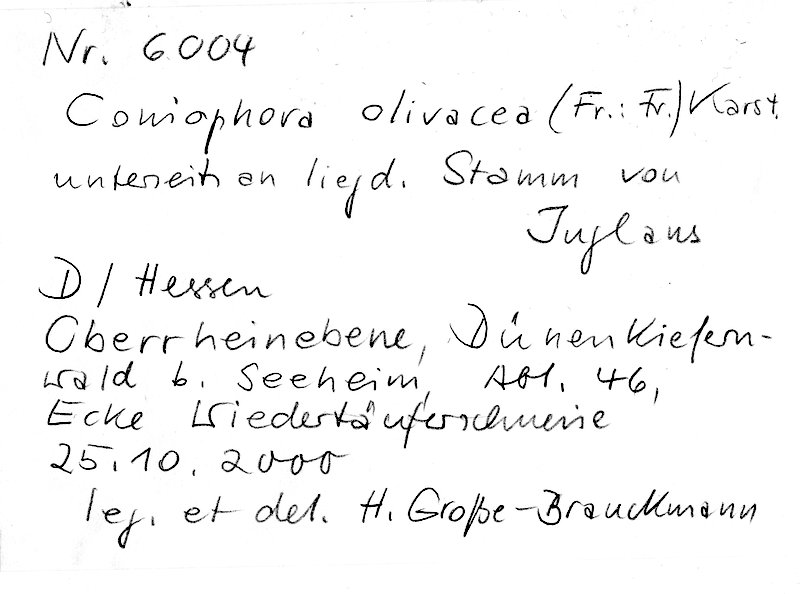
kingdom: Fungi
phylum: Basidiomycota
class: Agaricomycetes
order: Boletales
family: Coniophoraceae
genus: Coniophora
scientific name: Coniophora olivacea
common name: Olive duster
